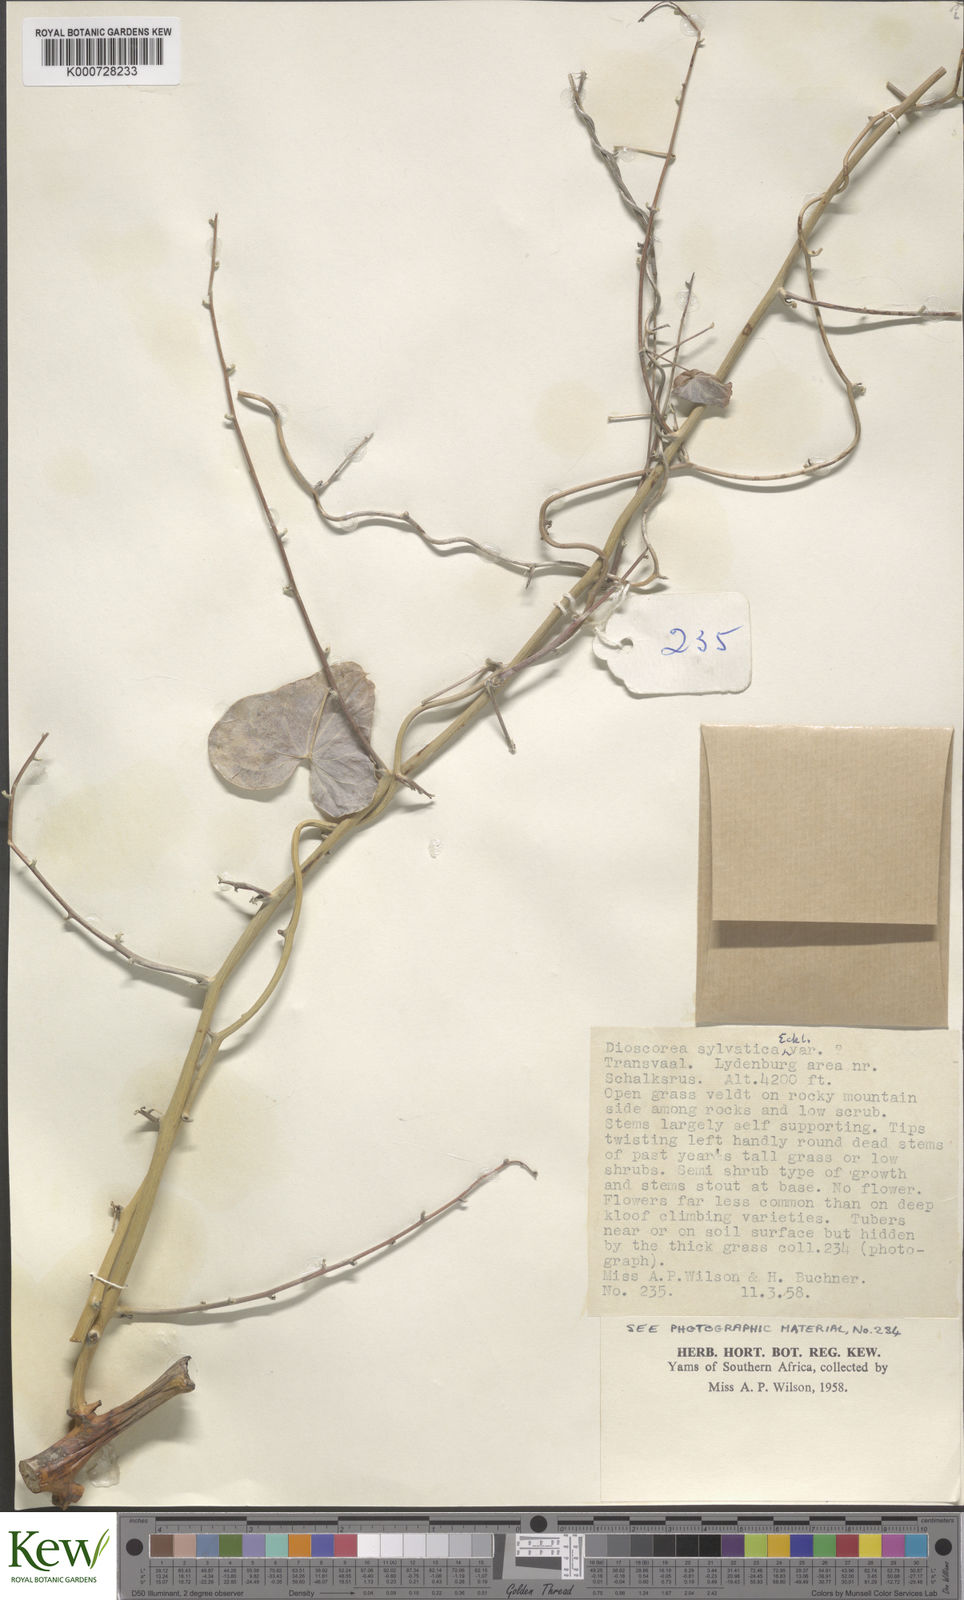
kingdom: Plantae
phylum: Tracheophyta
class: Liliopsida
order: Dioscoreales
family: Dioscoreaceae
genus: Dioscorea
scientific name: Dioscorea sylvatica
